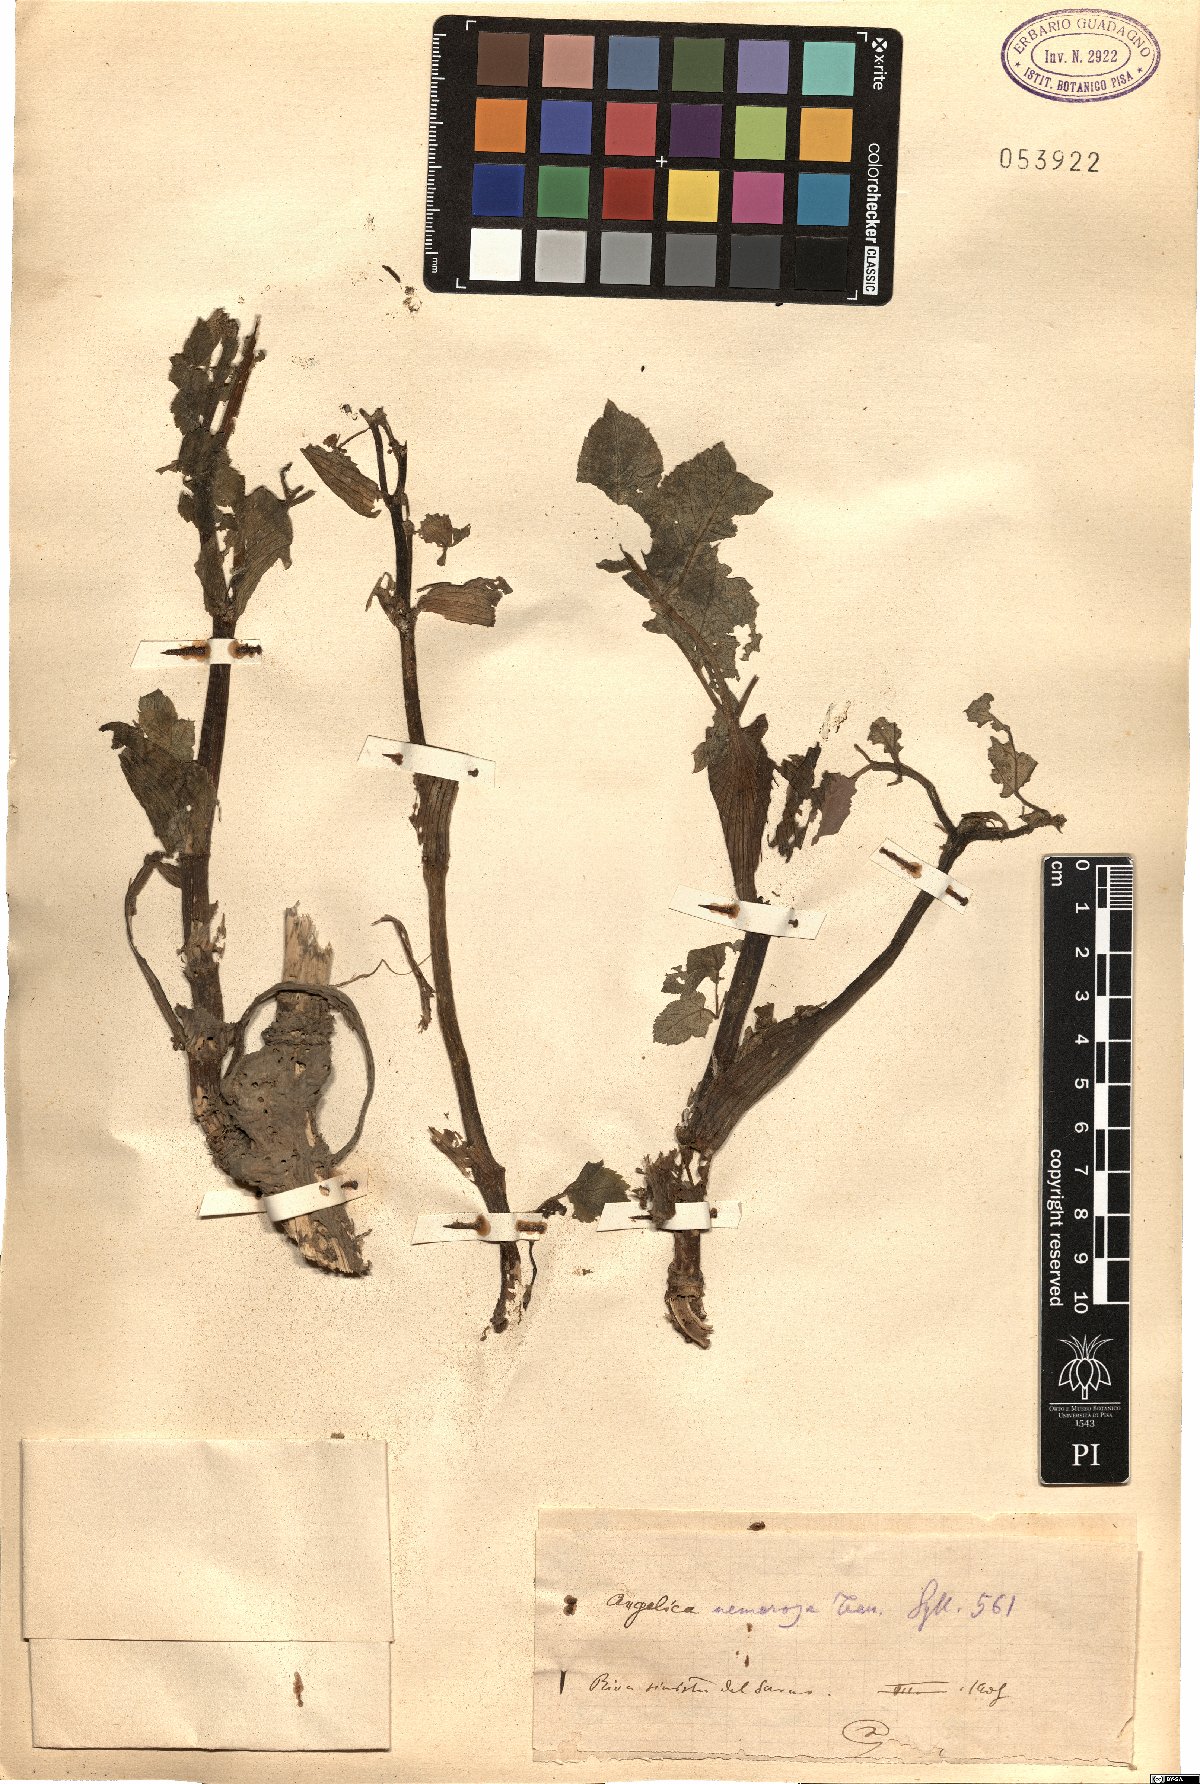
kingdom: Plantae
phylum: Tracheophyta
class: Magnoliopsida
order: Apiales
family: Apiaceae
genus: Angelica
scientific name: Angelica sylvestris
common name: Wild angelica
